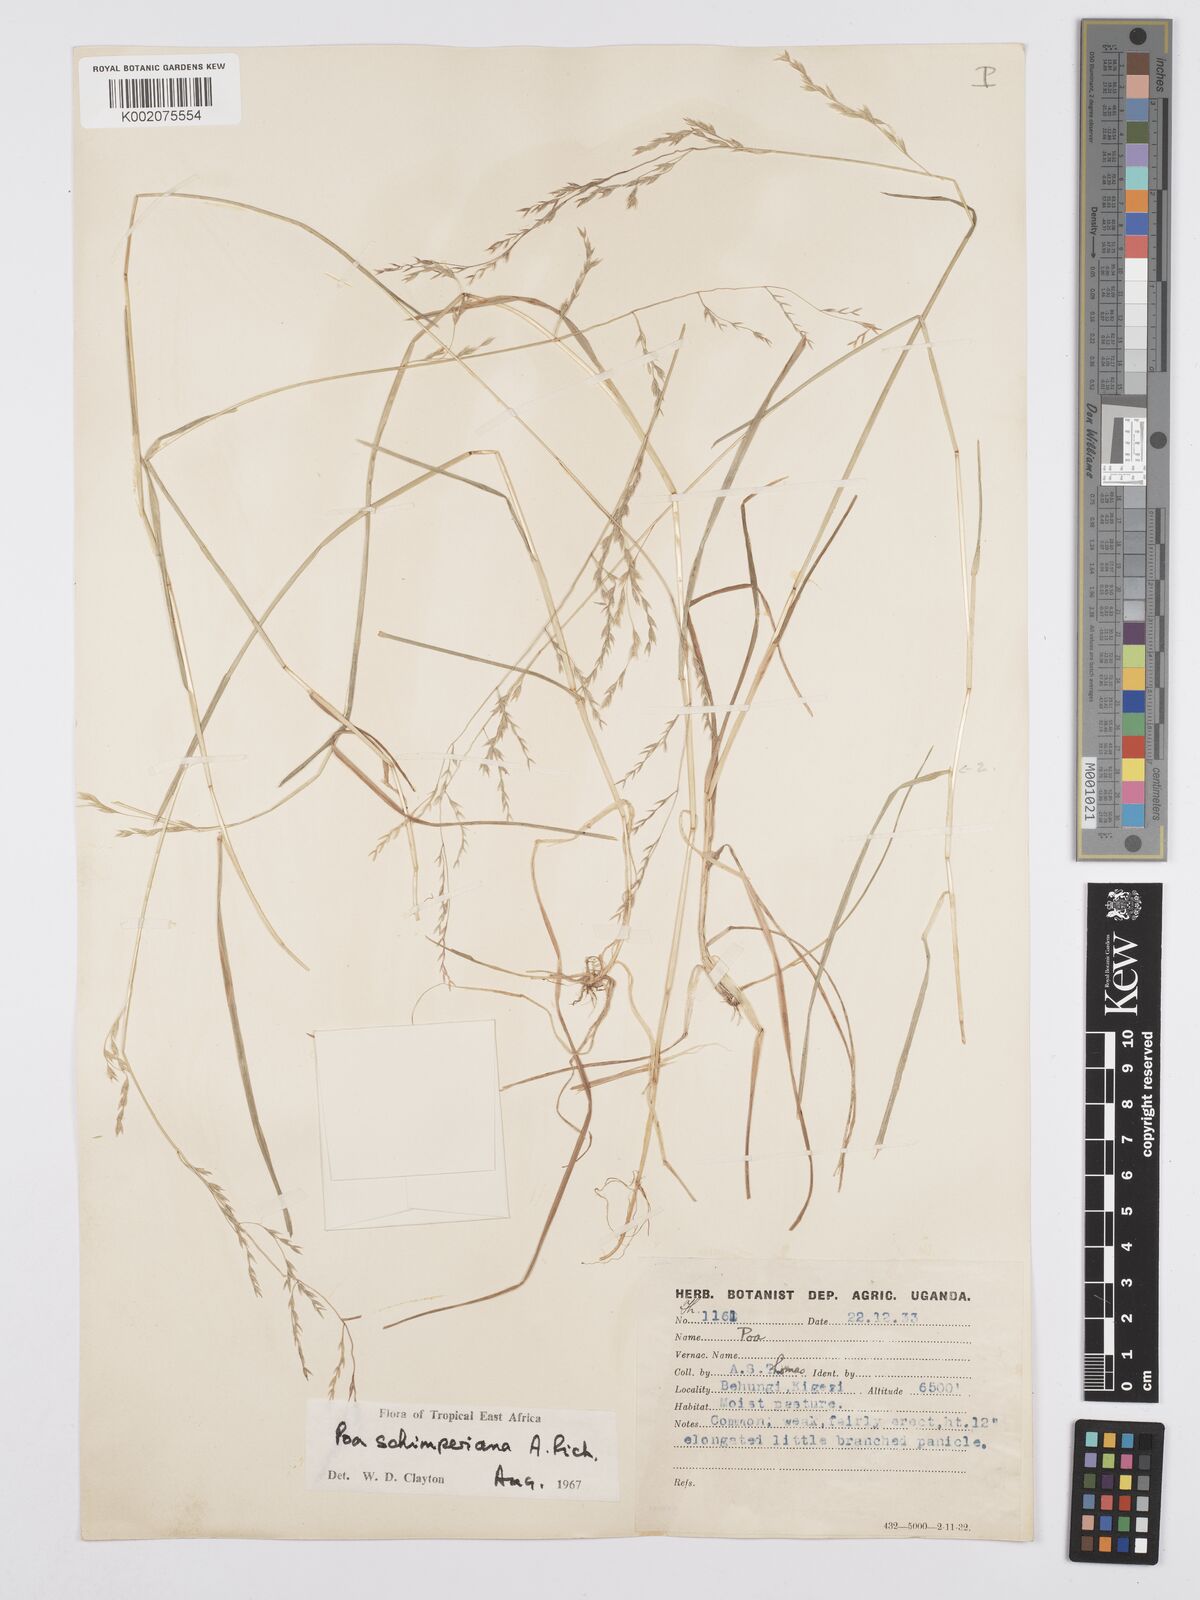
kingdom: Plantae
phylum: Tracheophyta
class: Liliopsida
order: Poales
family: Poaceae
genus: Poa
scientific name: Poa schimperiana
